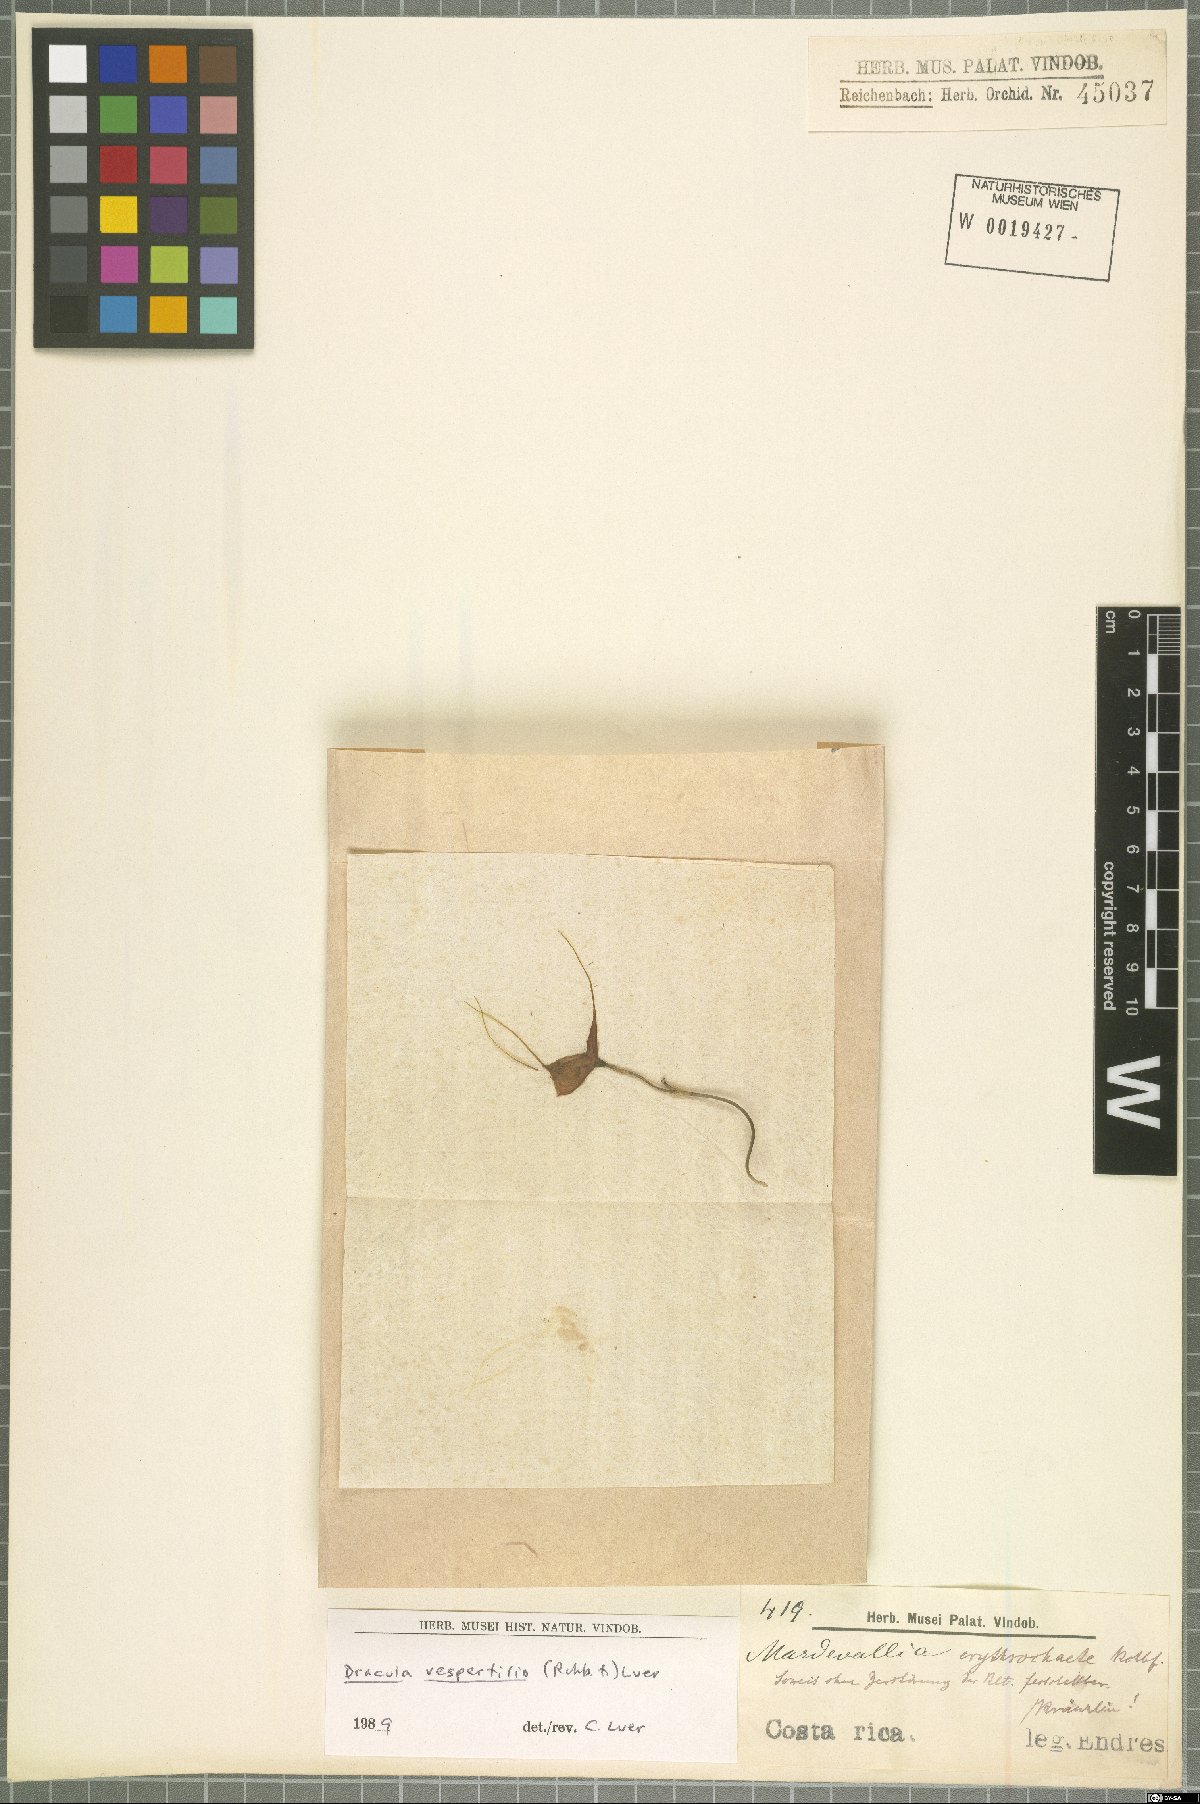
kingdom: Plantae
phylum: Tracheophyta
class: Liliopsida
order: Asparagales
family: Orchidaceae
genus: Dracula
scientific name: Dracula vespertilio
